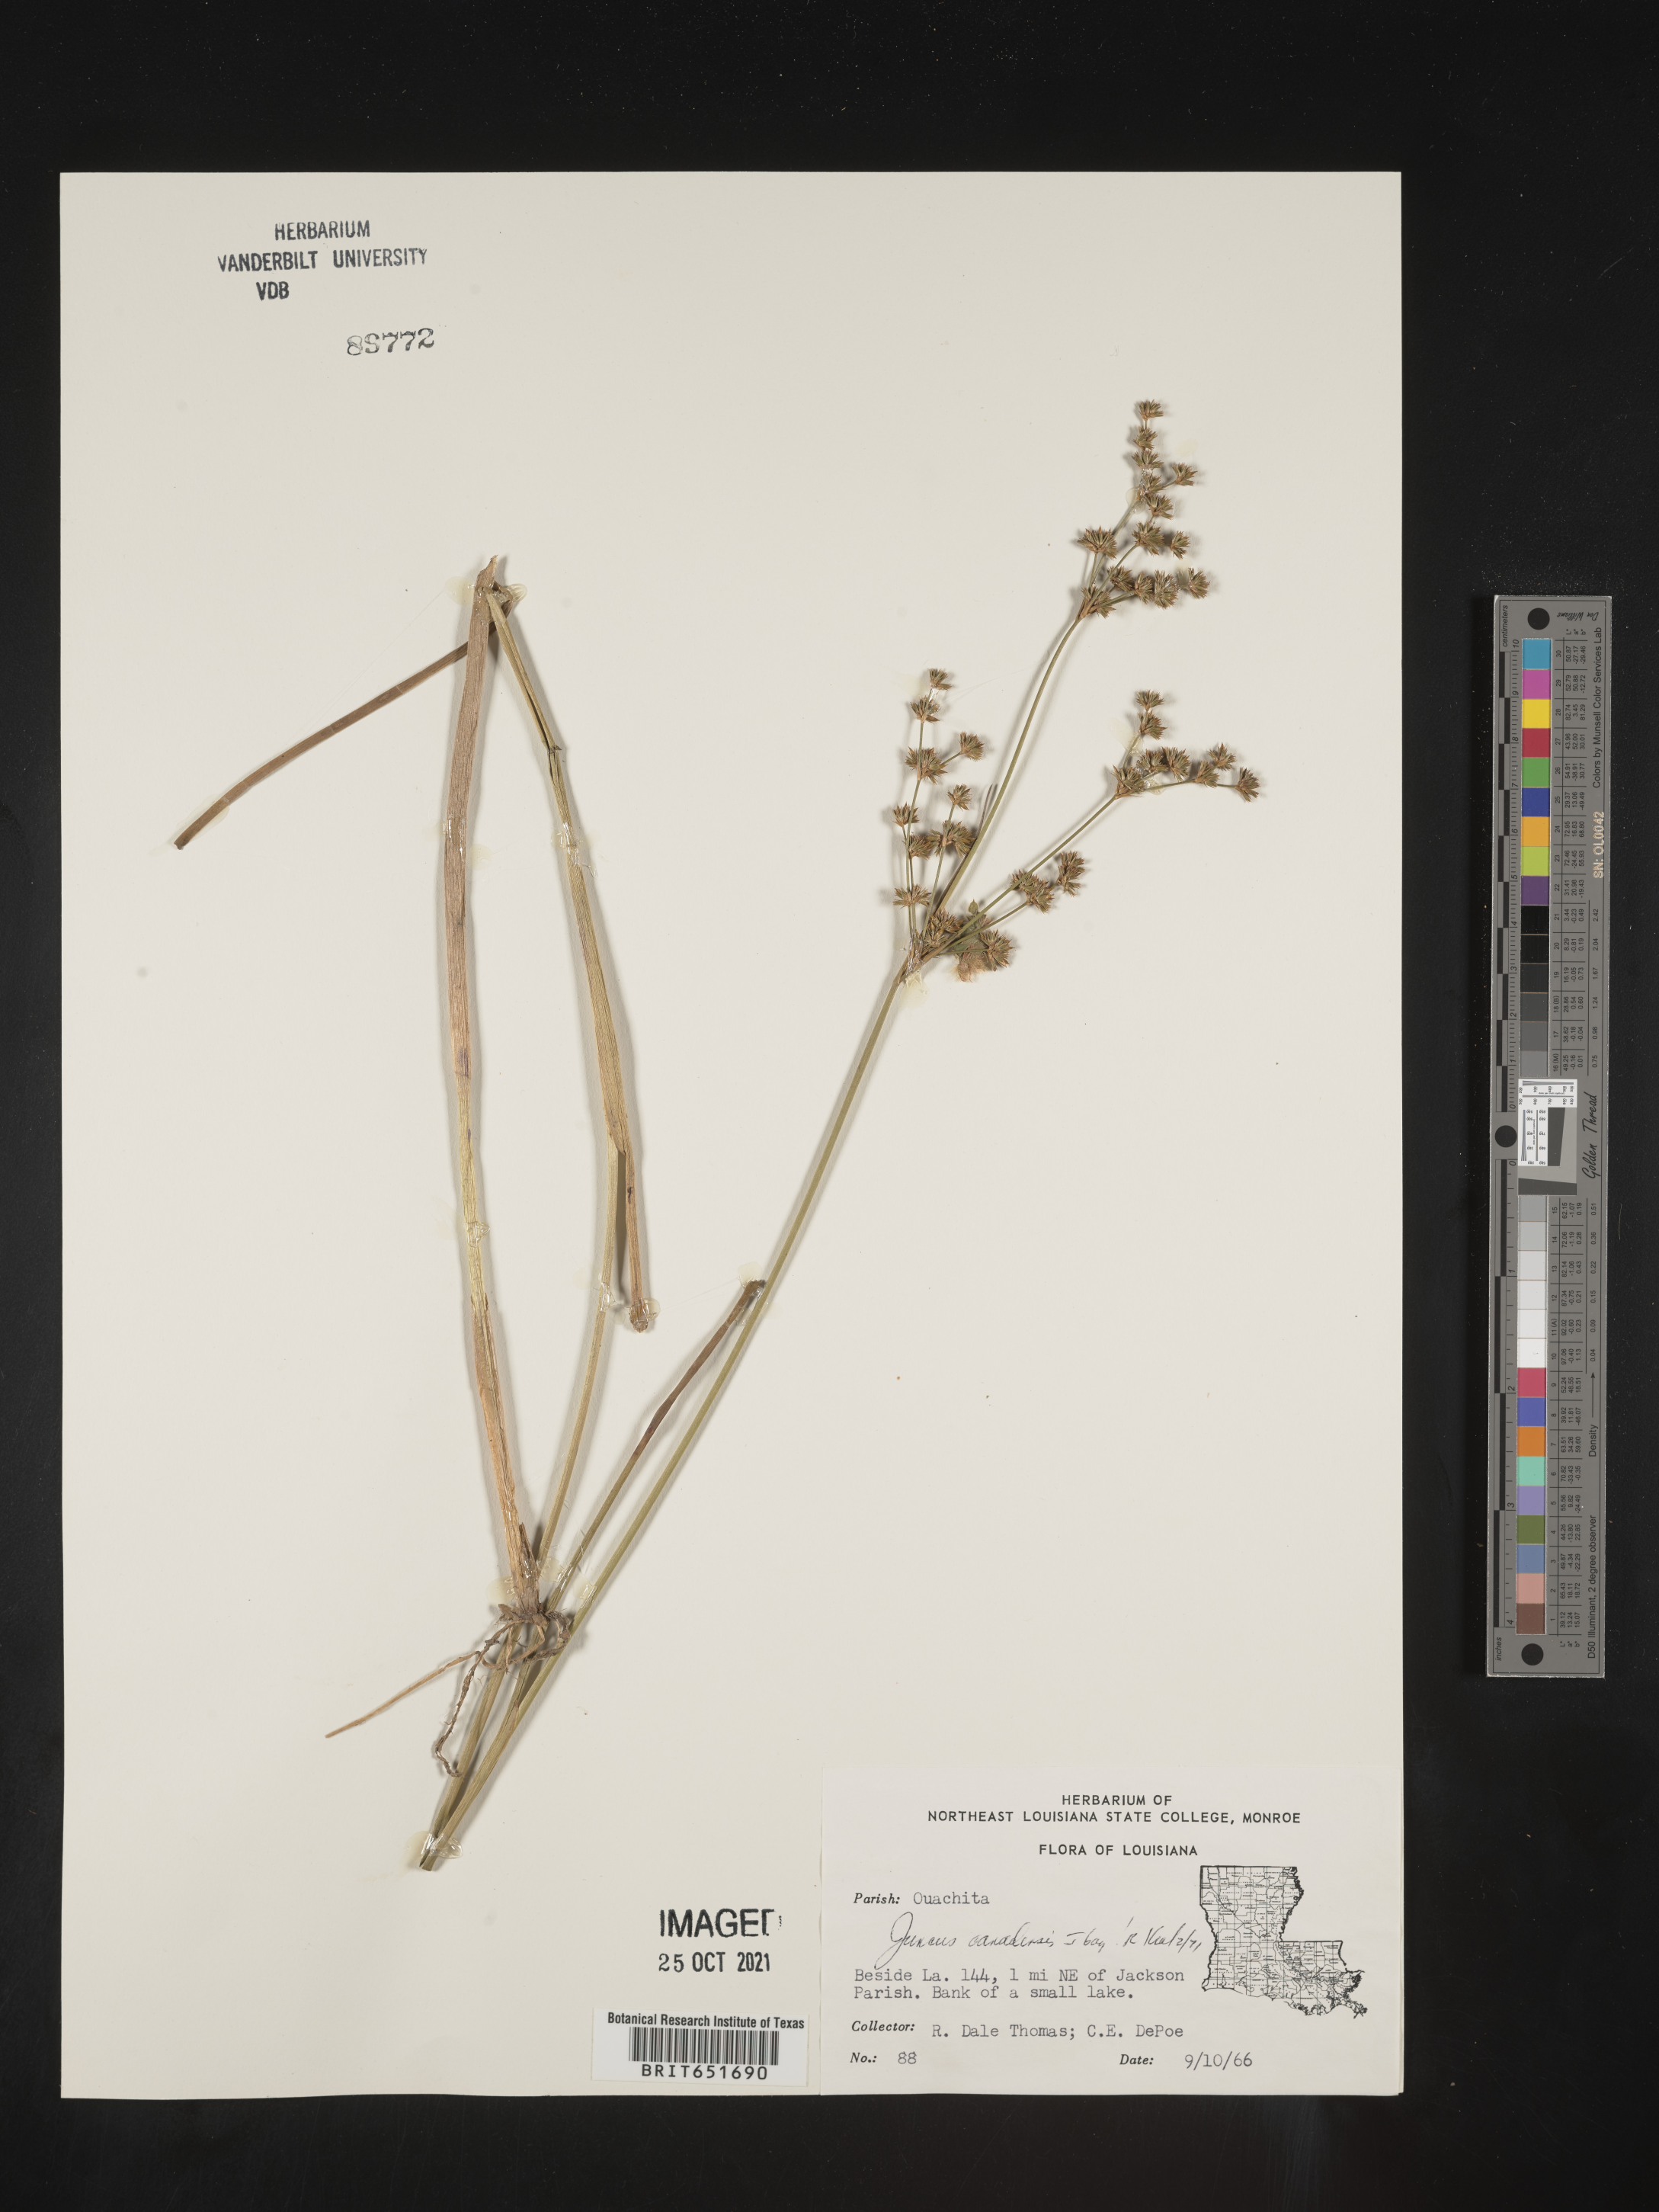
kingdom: Plantae
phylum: Tracheophyta
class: Liliopsida
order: Poales
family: Juncaceae
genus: Juncus
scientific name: Juncus canadensis
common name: Canada rush
